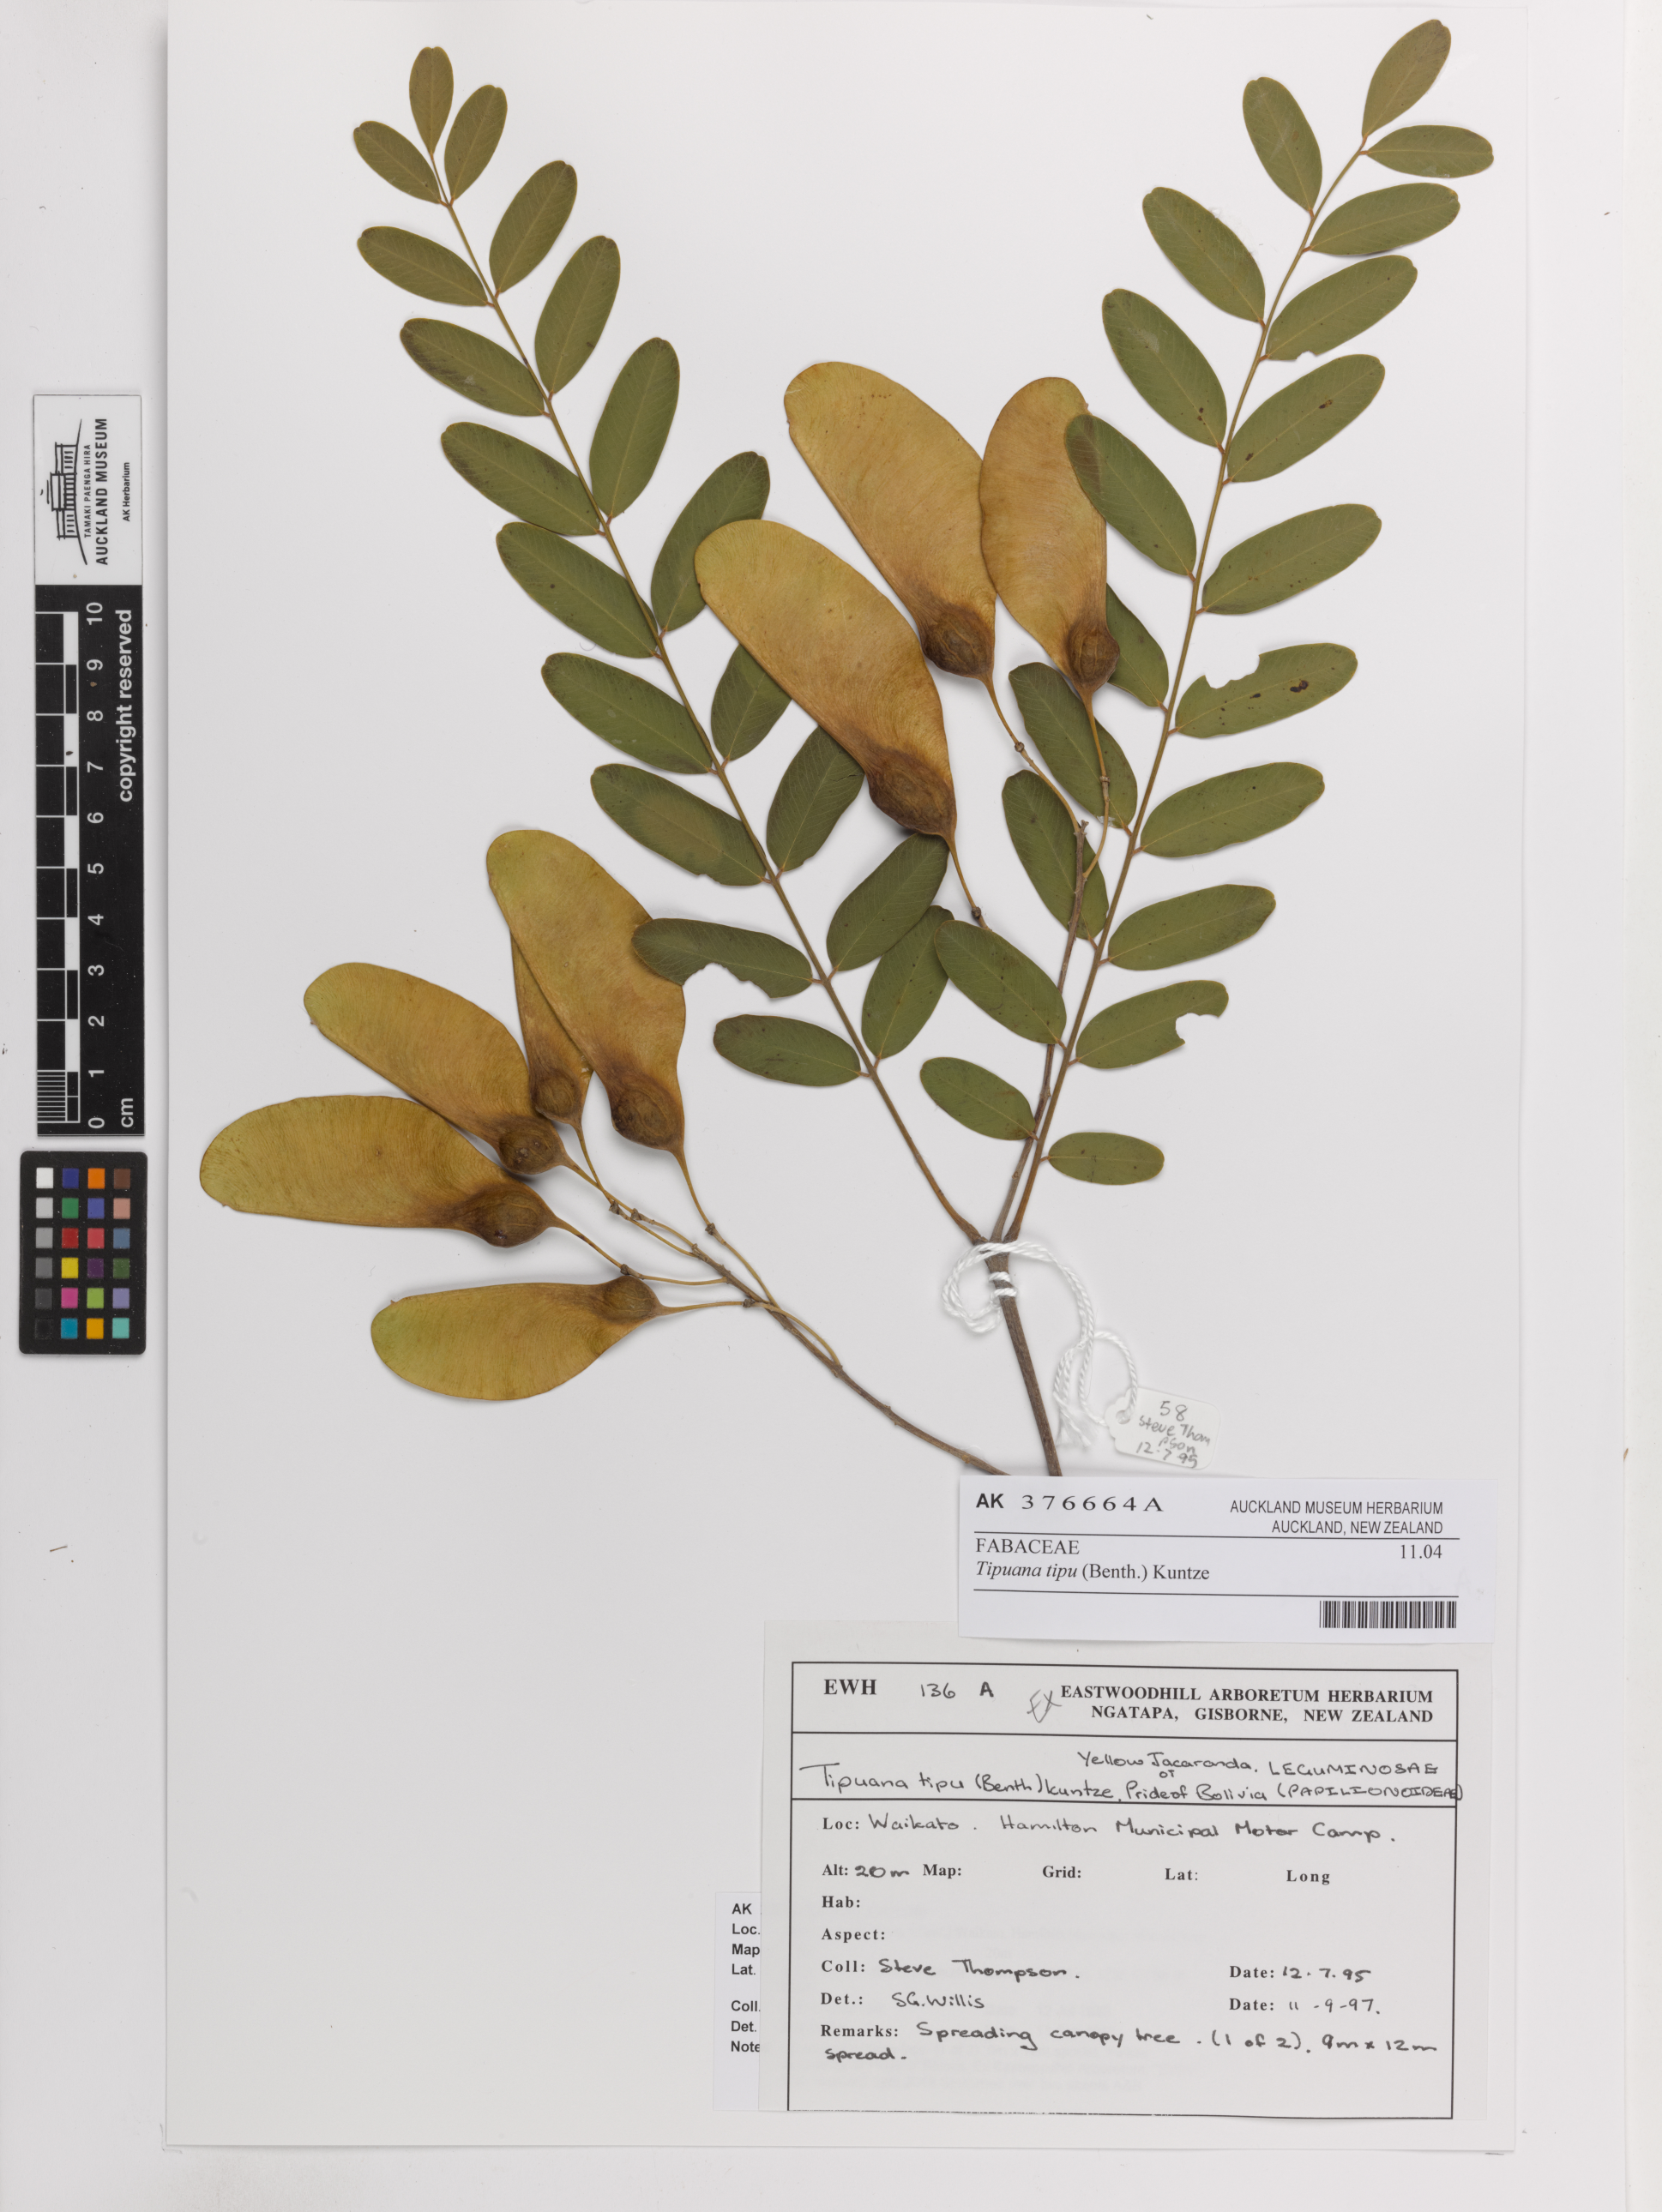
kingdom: Plantae
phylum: Tracheophyta
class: Magnoliopsida
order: Fabales
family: Fabaceae
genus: Tipuana
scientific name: Tipuana tipu
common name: Tiputree
